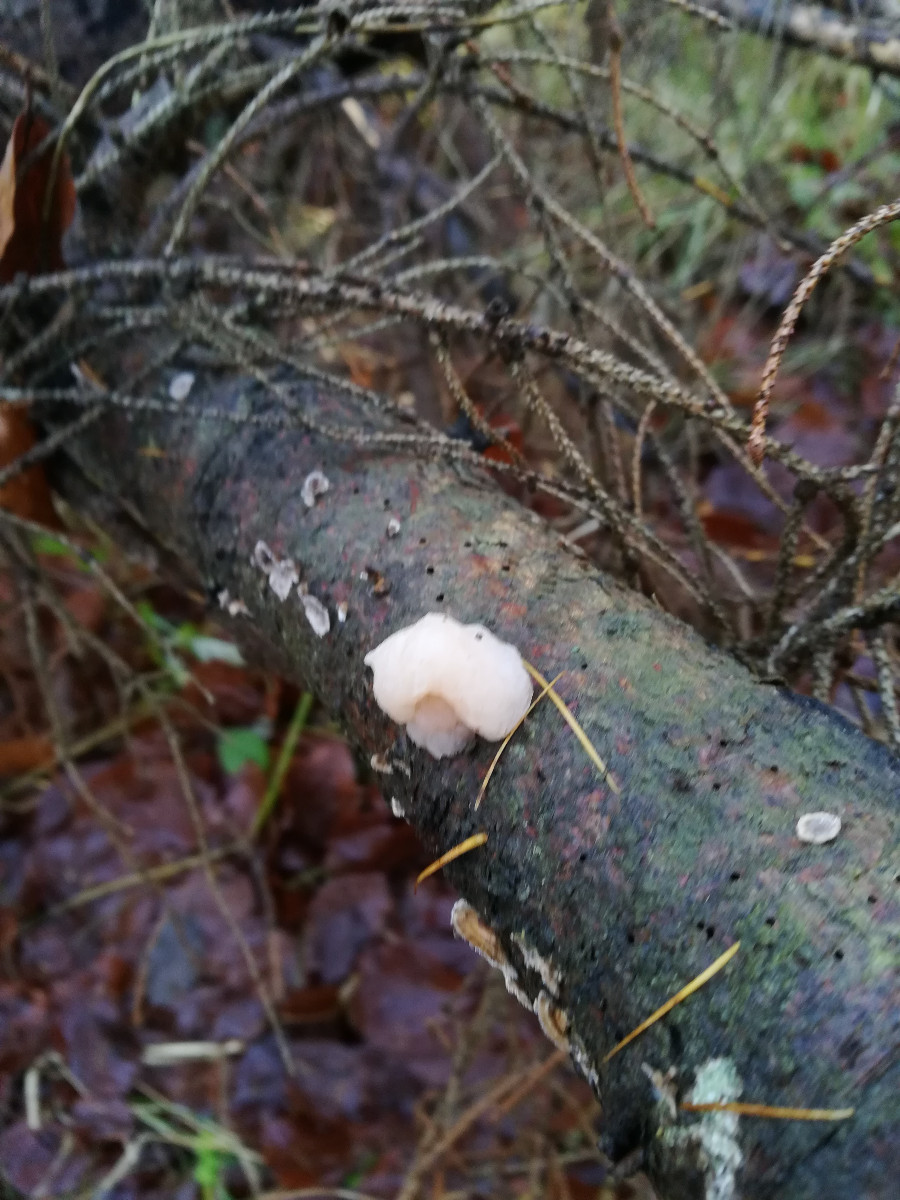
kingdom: Fungi
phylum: Basidiomycota
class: Tremellomycetes
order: Tremellales
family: Naemateliaceae
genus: Naematelia
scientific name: Naematelia encephala
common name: fyrre-bævresvamp
